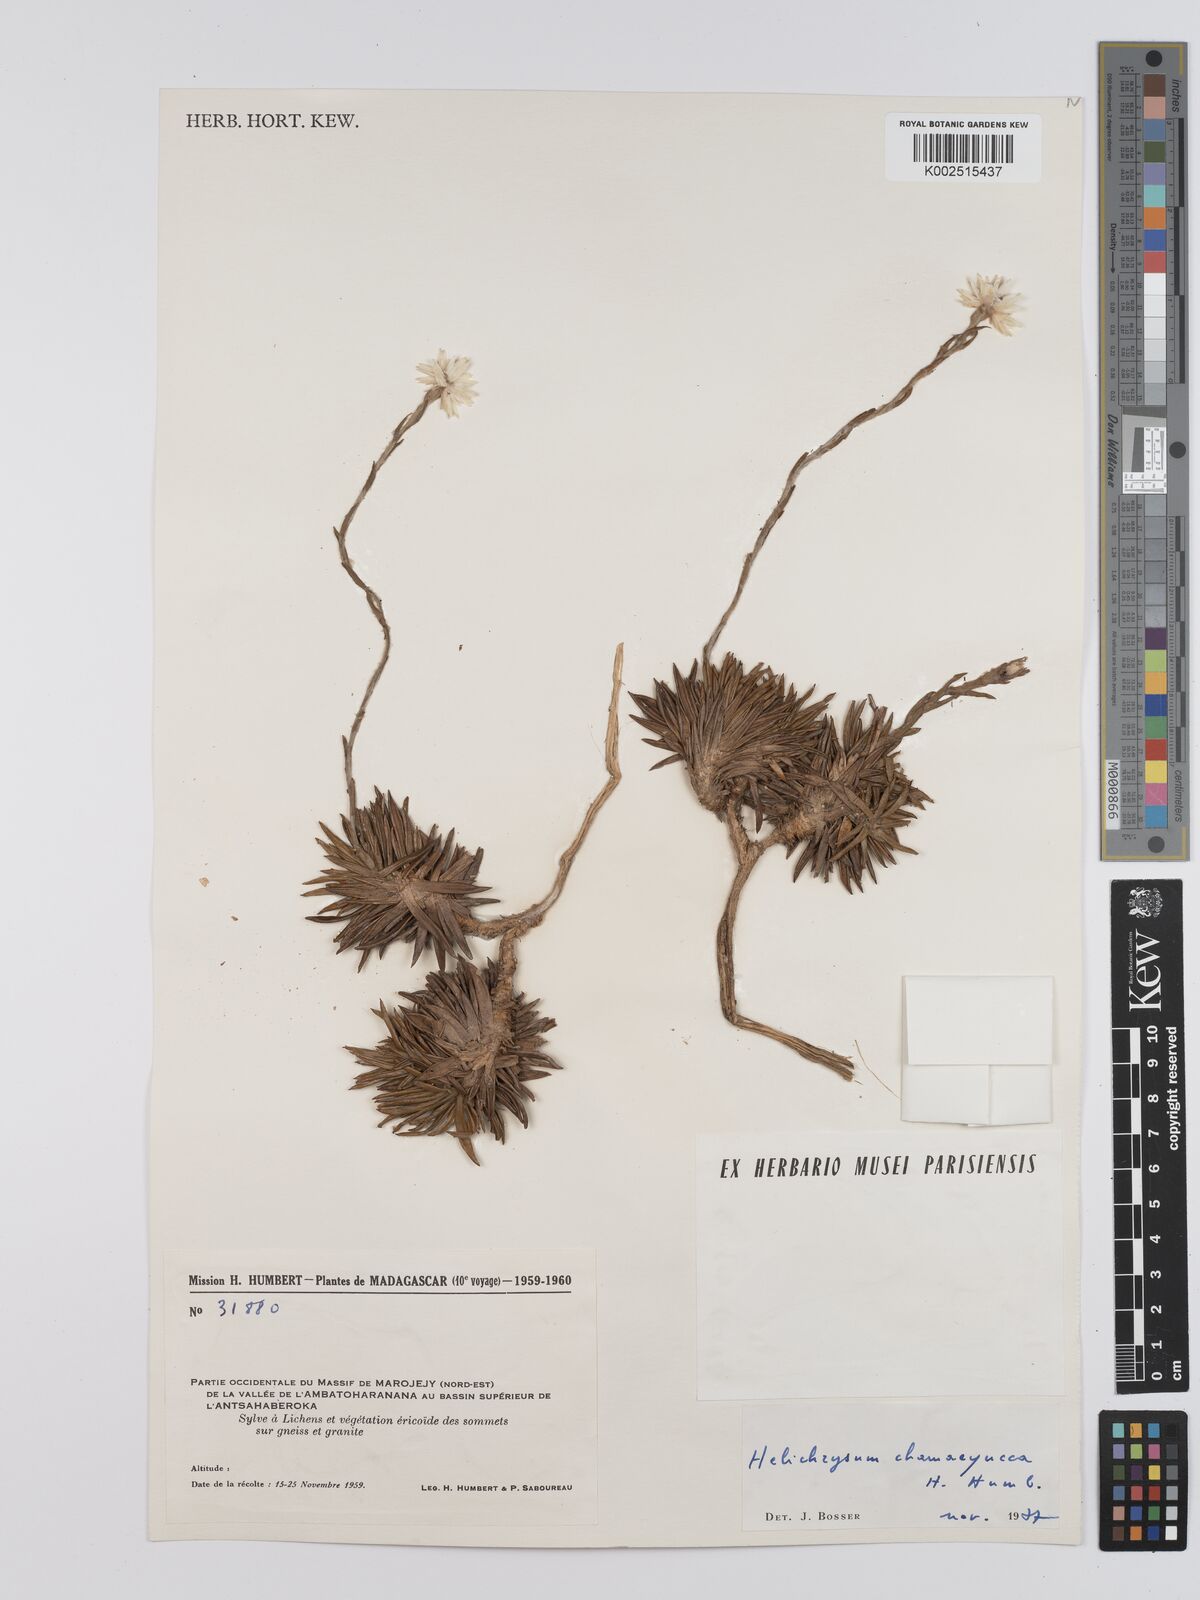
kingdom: Plantae
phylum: Tracheophyta
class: Magnoliopsida
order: Asterales
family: Asteraceae
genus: Helichrysum
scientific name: Helichrysum chamaeyucca
